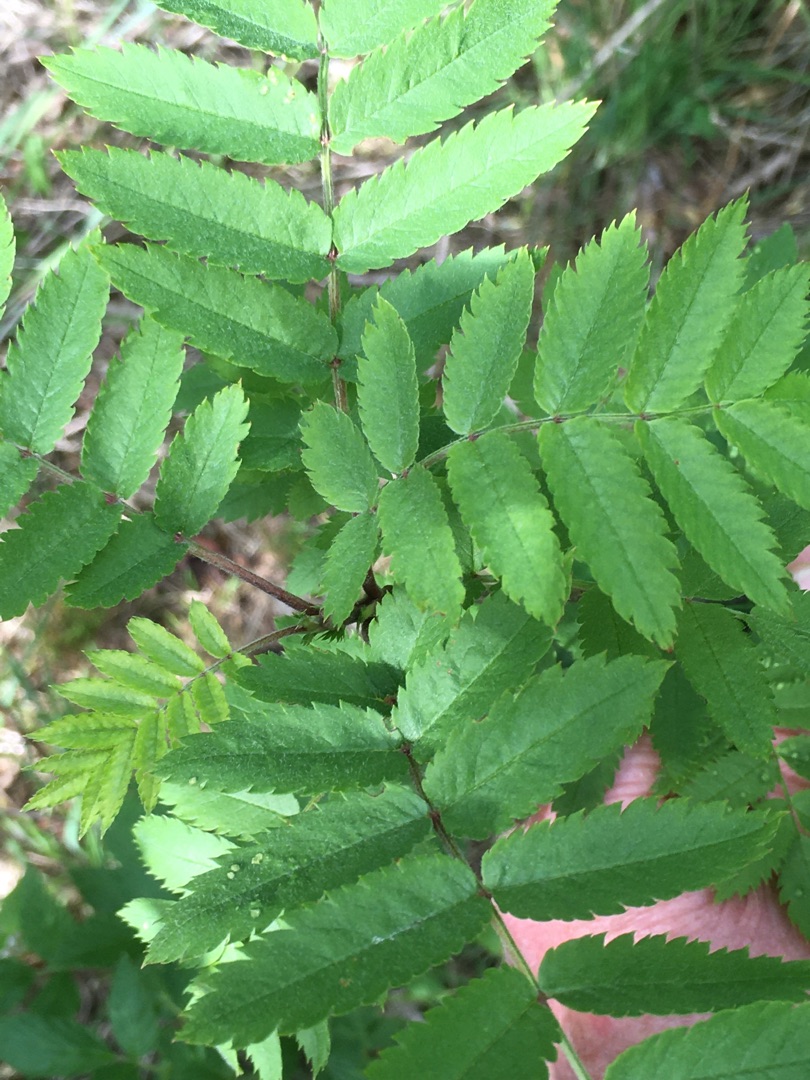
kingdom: Plantae
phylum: Tracheophyta
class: Magnoliopsida
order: Rosales
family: Rosaceae
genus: Sorbus
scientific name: Sorbus aucuparia
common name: Almindelig røn
